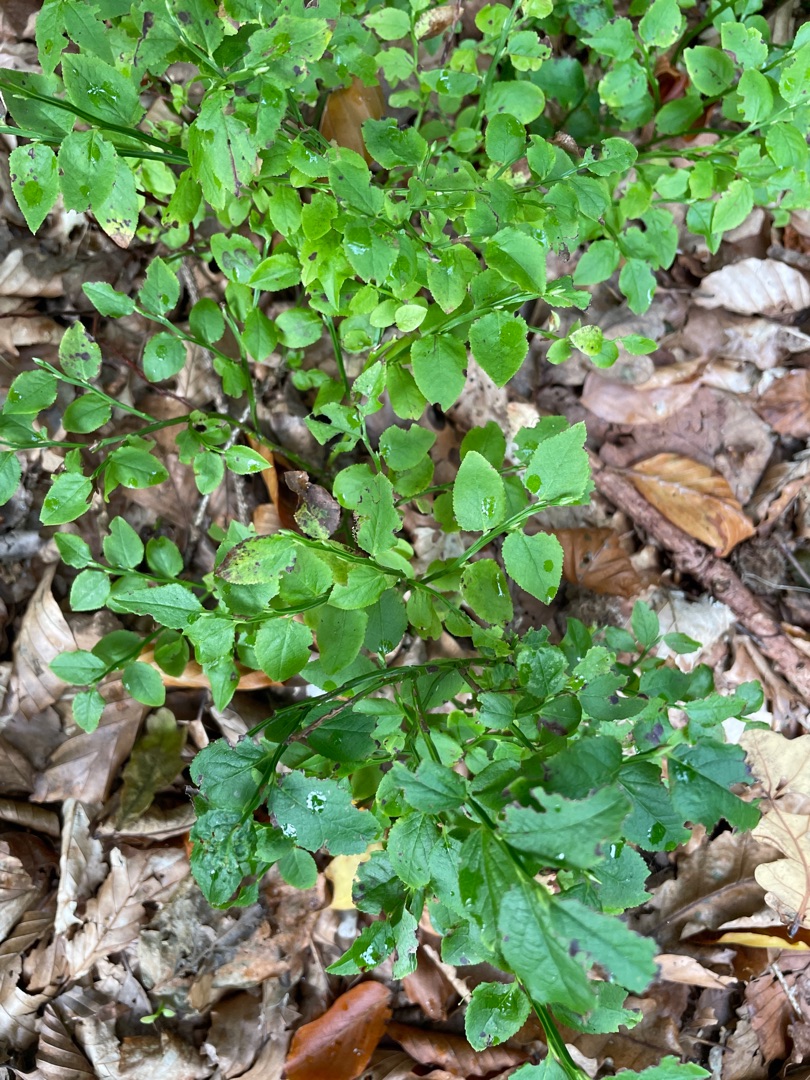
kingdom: Plantae
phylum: Tracheophyta
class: Magnoliopsida
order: Ericales
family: Ericaceae
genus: Vaccinium
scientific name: Vaccinium myrtillus
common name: Blåbær
